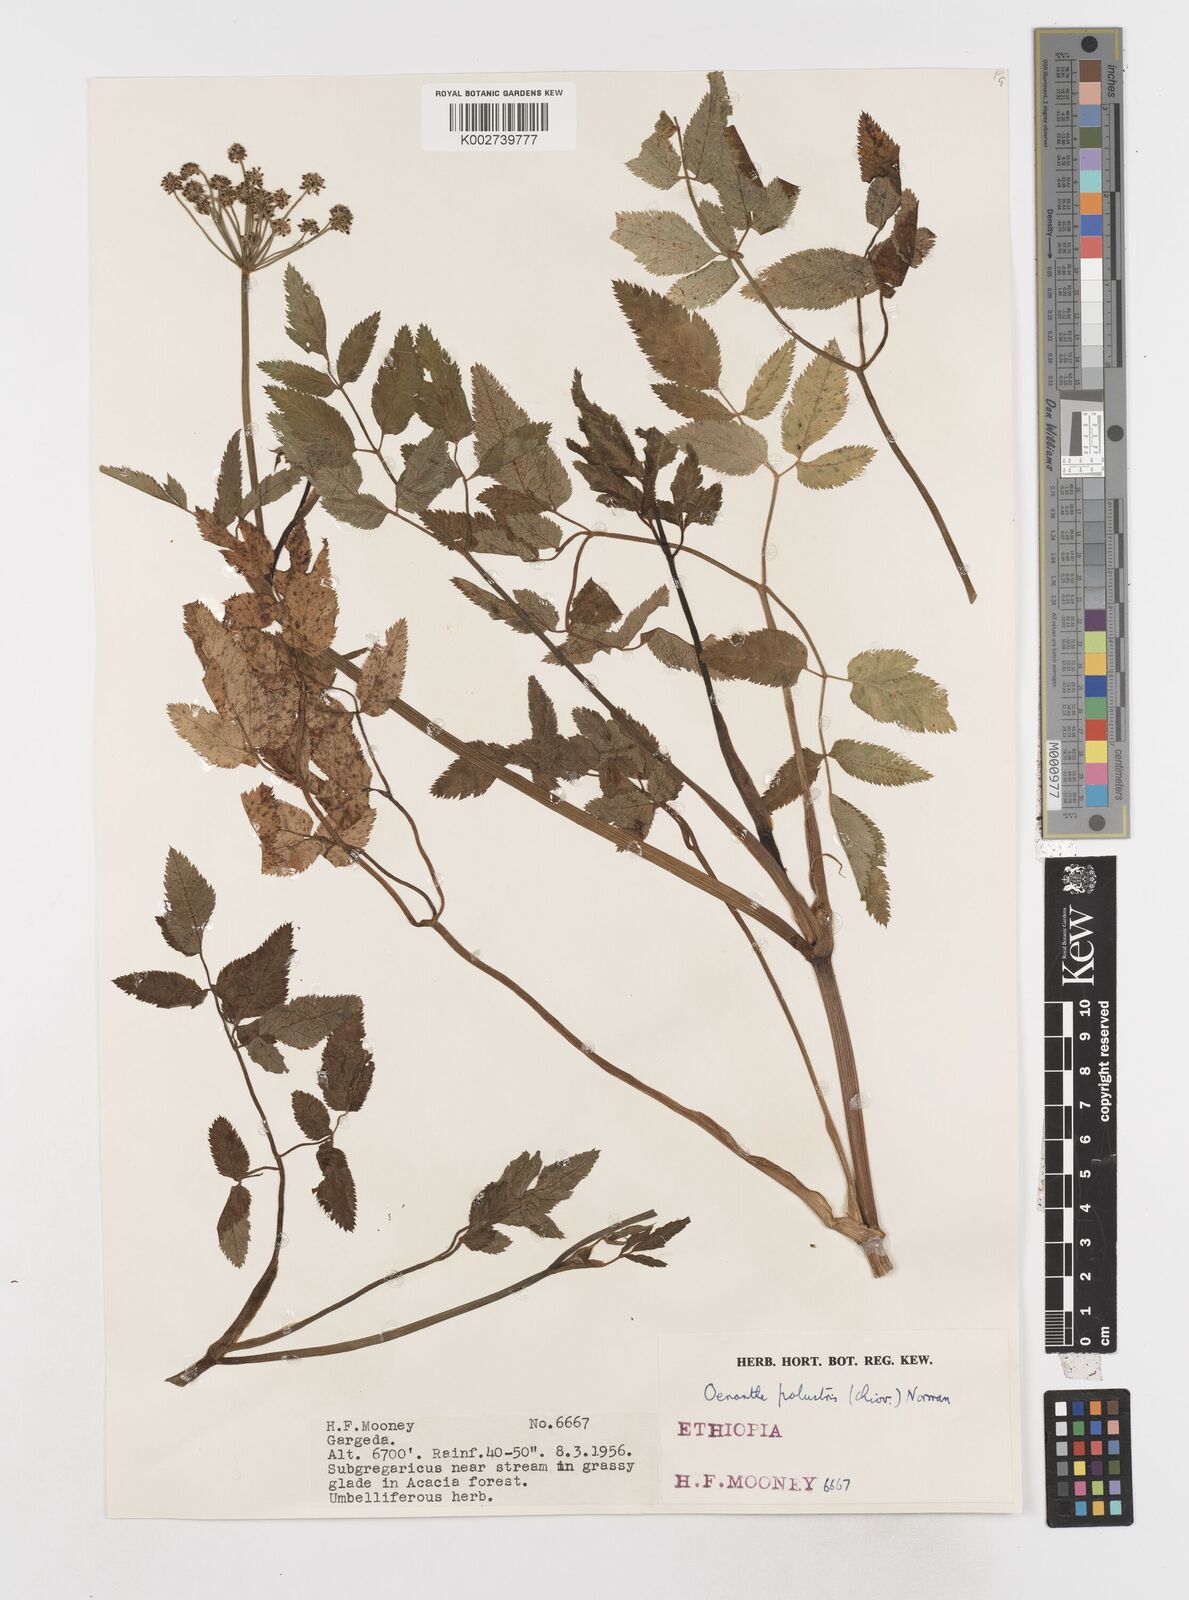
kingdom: Plantae
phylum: Tracheophyta
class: Magnoliopsida
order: Apiales
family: Apiaceae
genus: Oenanthe
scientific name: Oenanthe palustris
